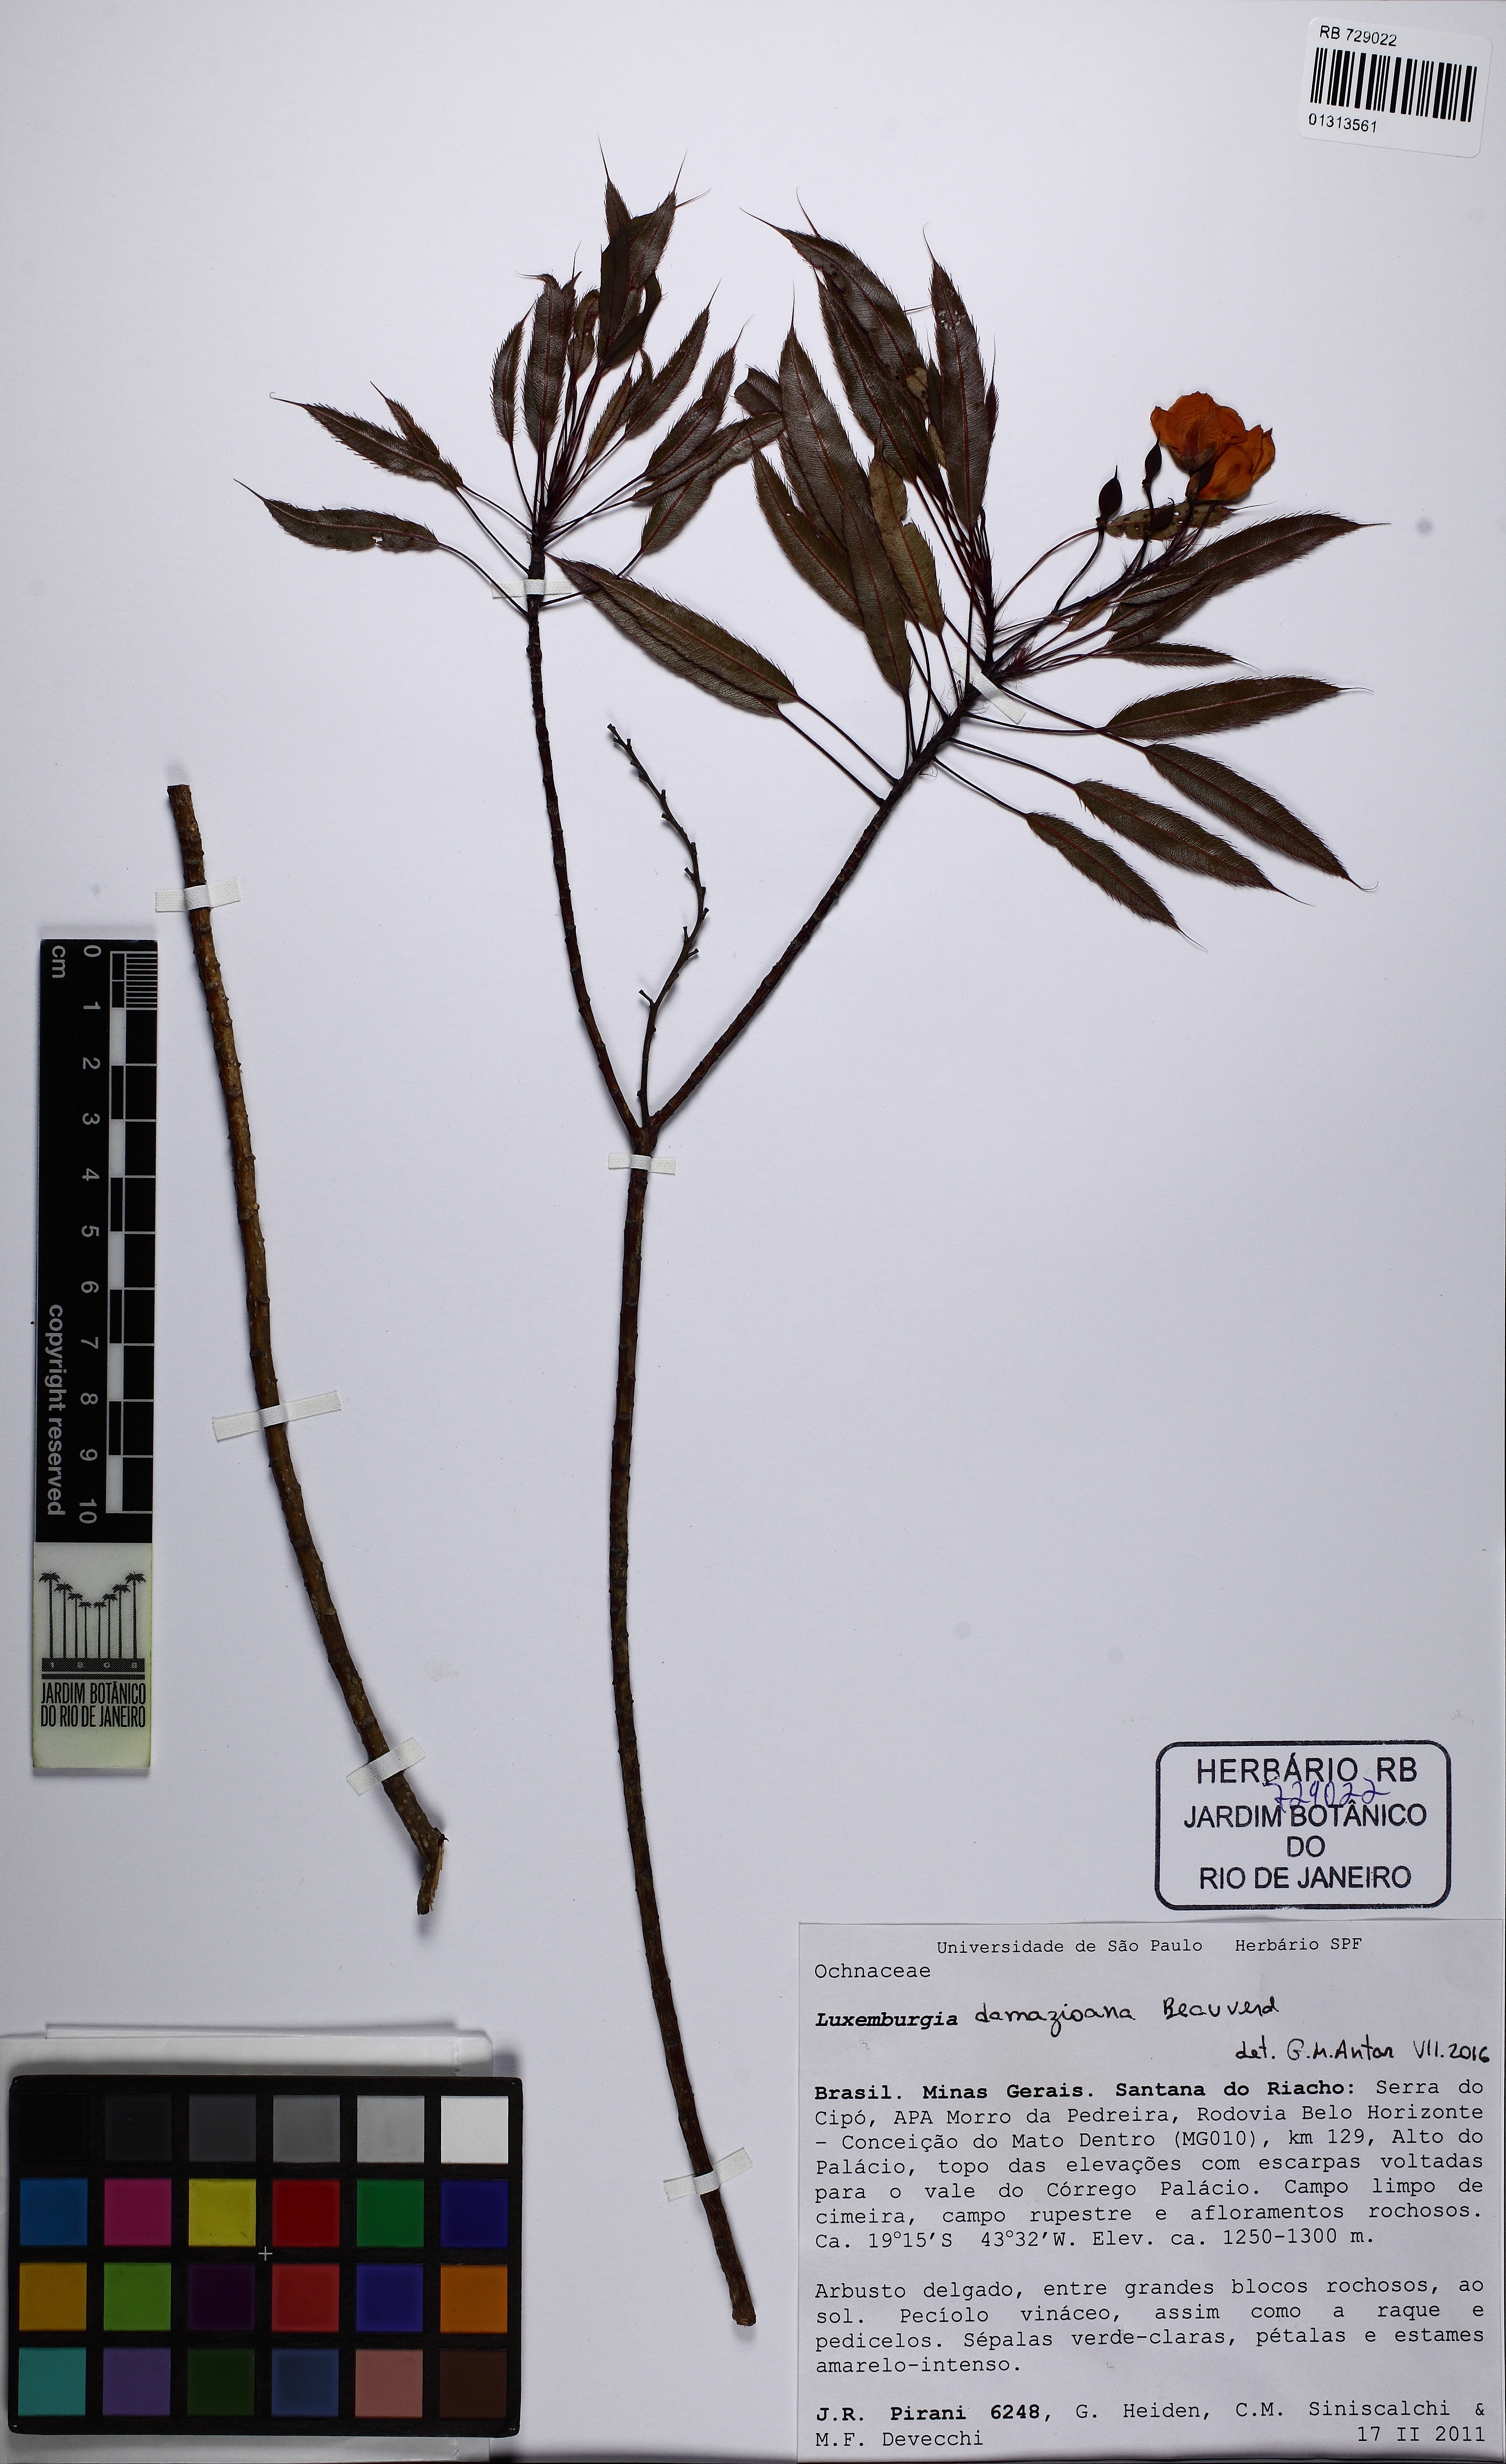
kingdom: Plantae
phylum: Tracheophyta
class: Magnoliopsida
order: Malpighiales
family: Ochnaceae
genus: Luxemburgia
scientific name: Luxemburgia damazioana
